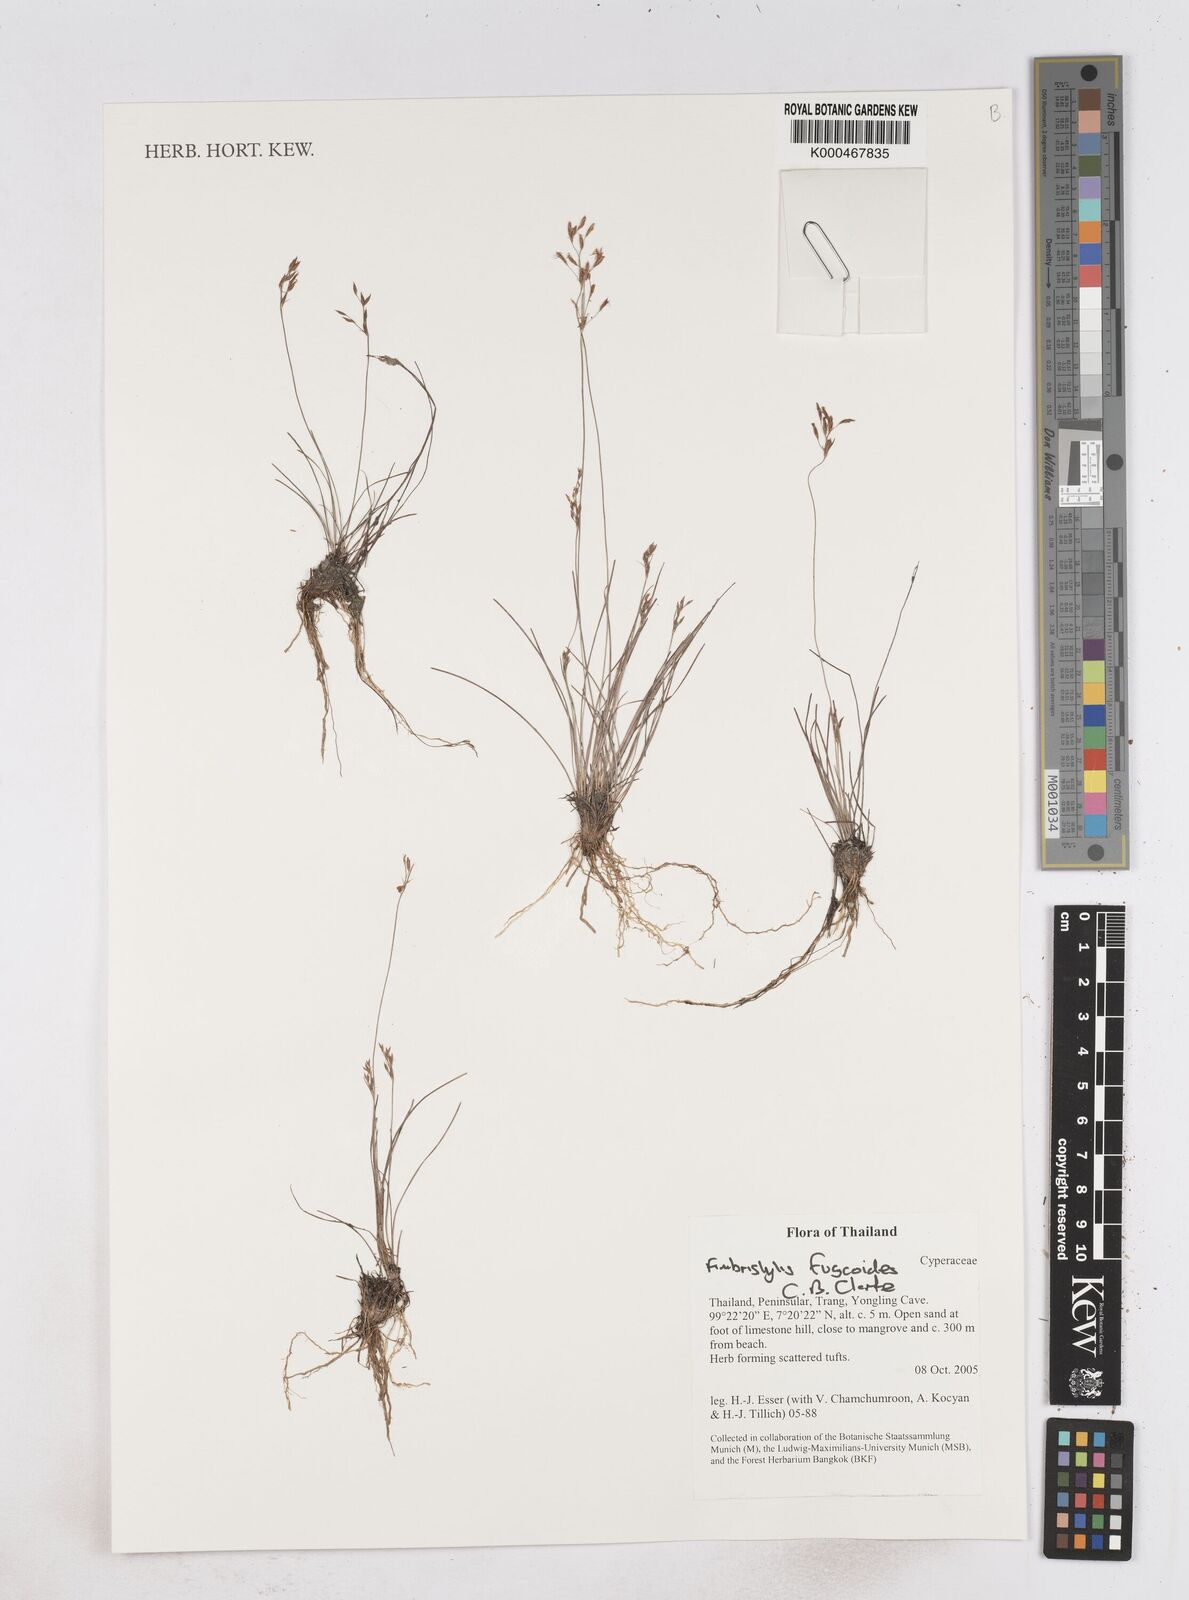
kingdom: Plantae
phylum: Tracheophyta
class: Liliopsida
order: Poales
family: Cyperaceae
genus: Fimbristylis
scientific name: Fimbristylis fuscoides
